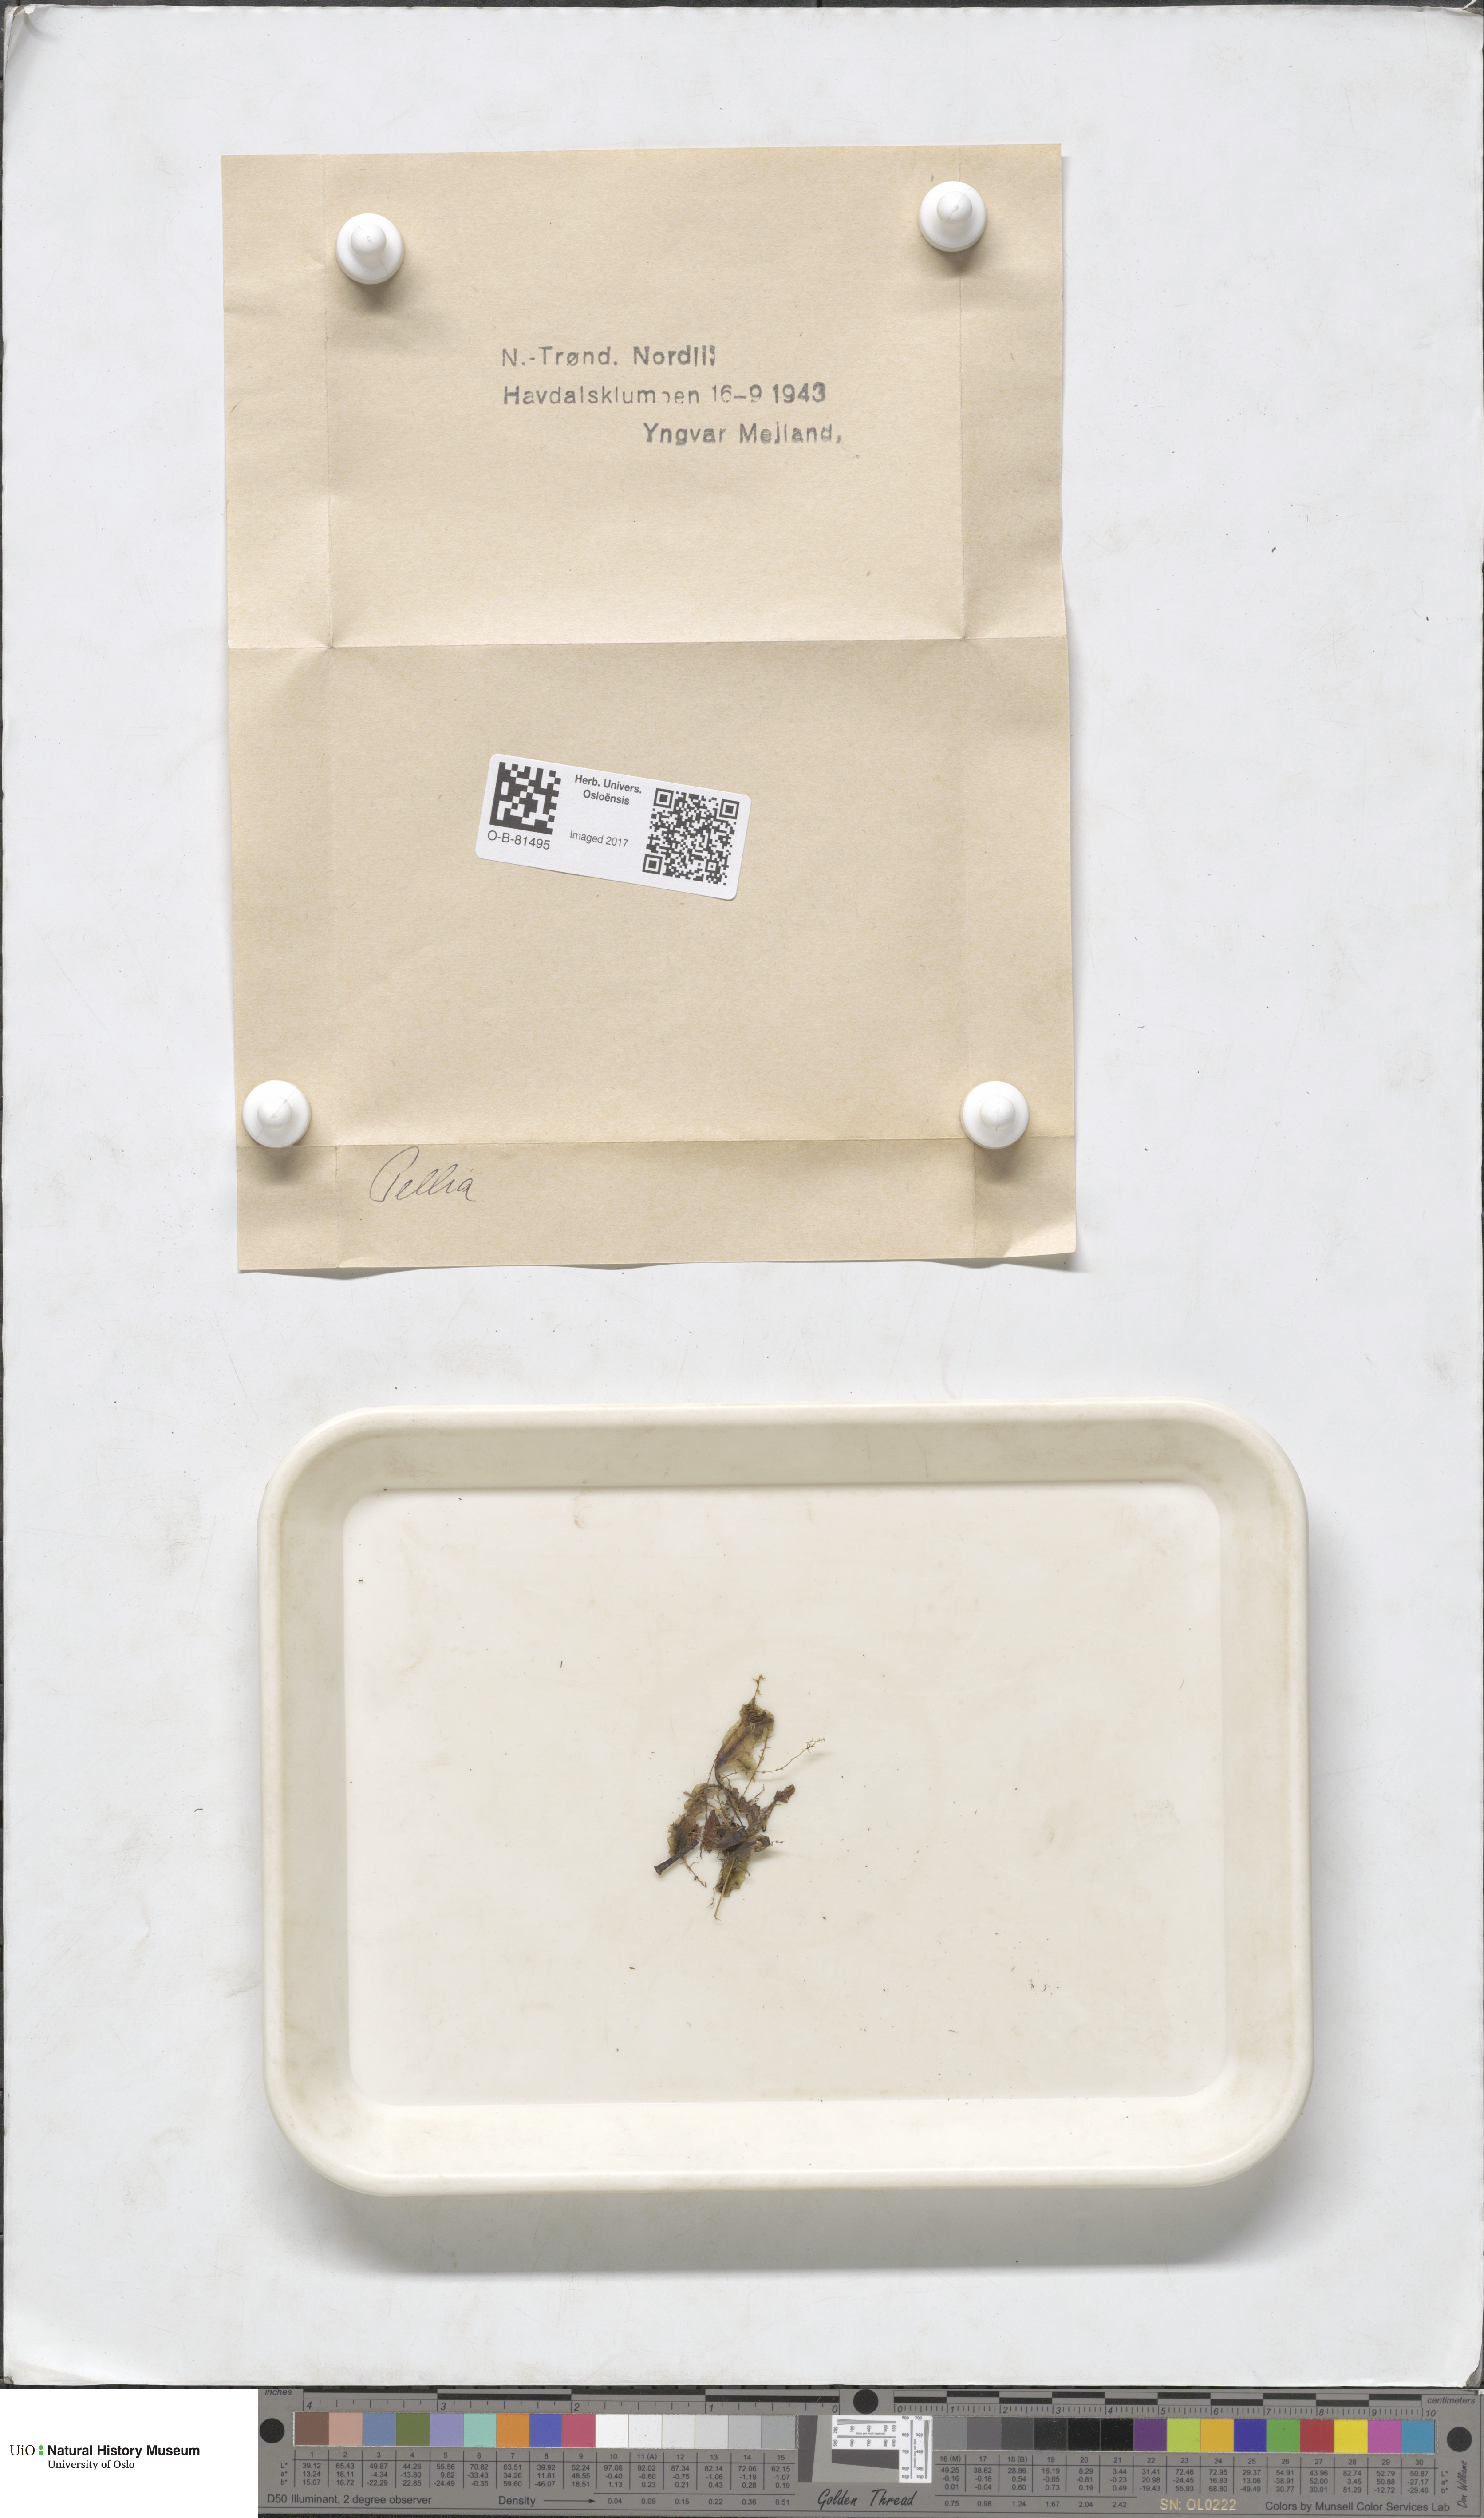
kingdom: Plantae
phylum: Marchantiophyta
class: Jungermanniopsida
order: Pelliales
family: Pelliaceae
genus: Pellia
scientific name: Pellia
